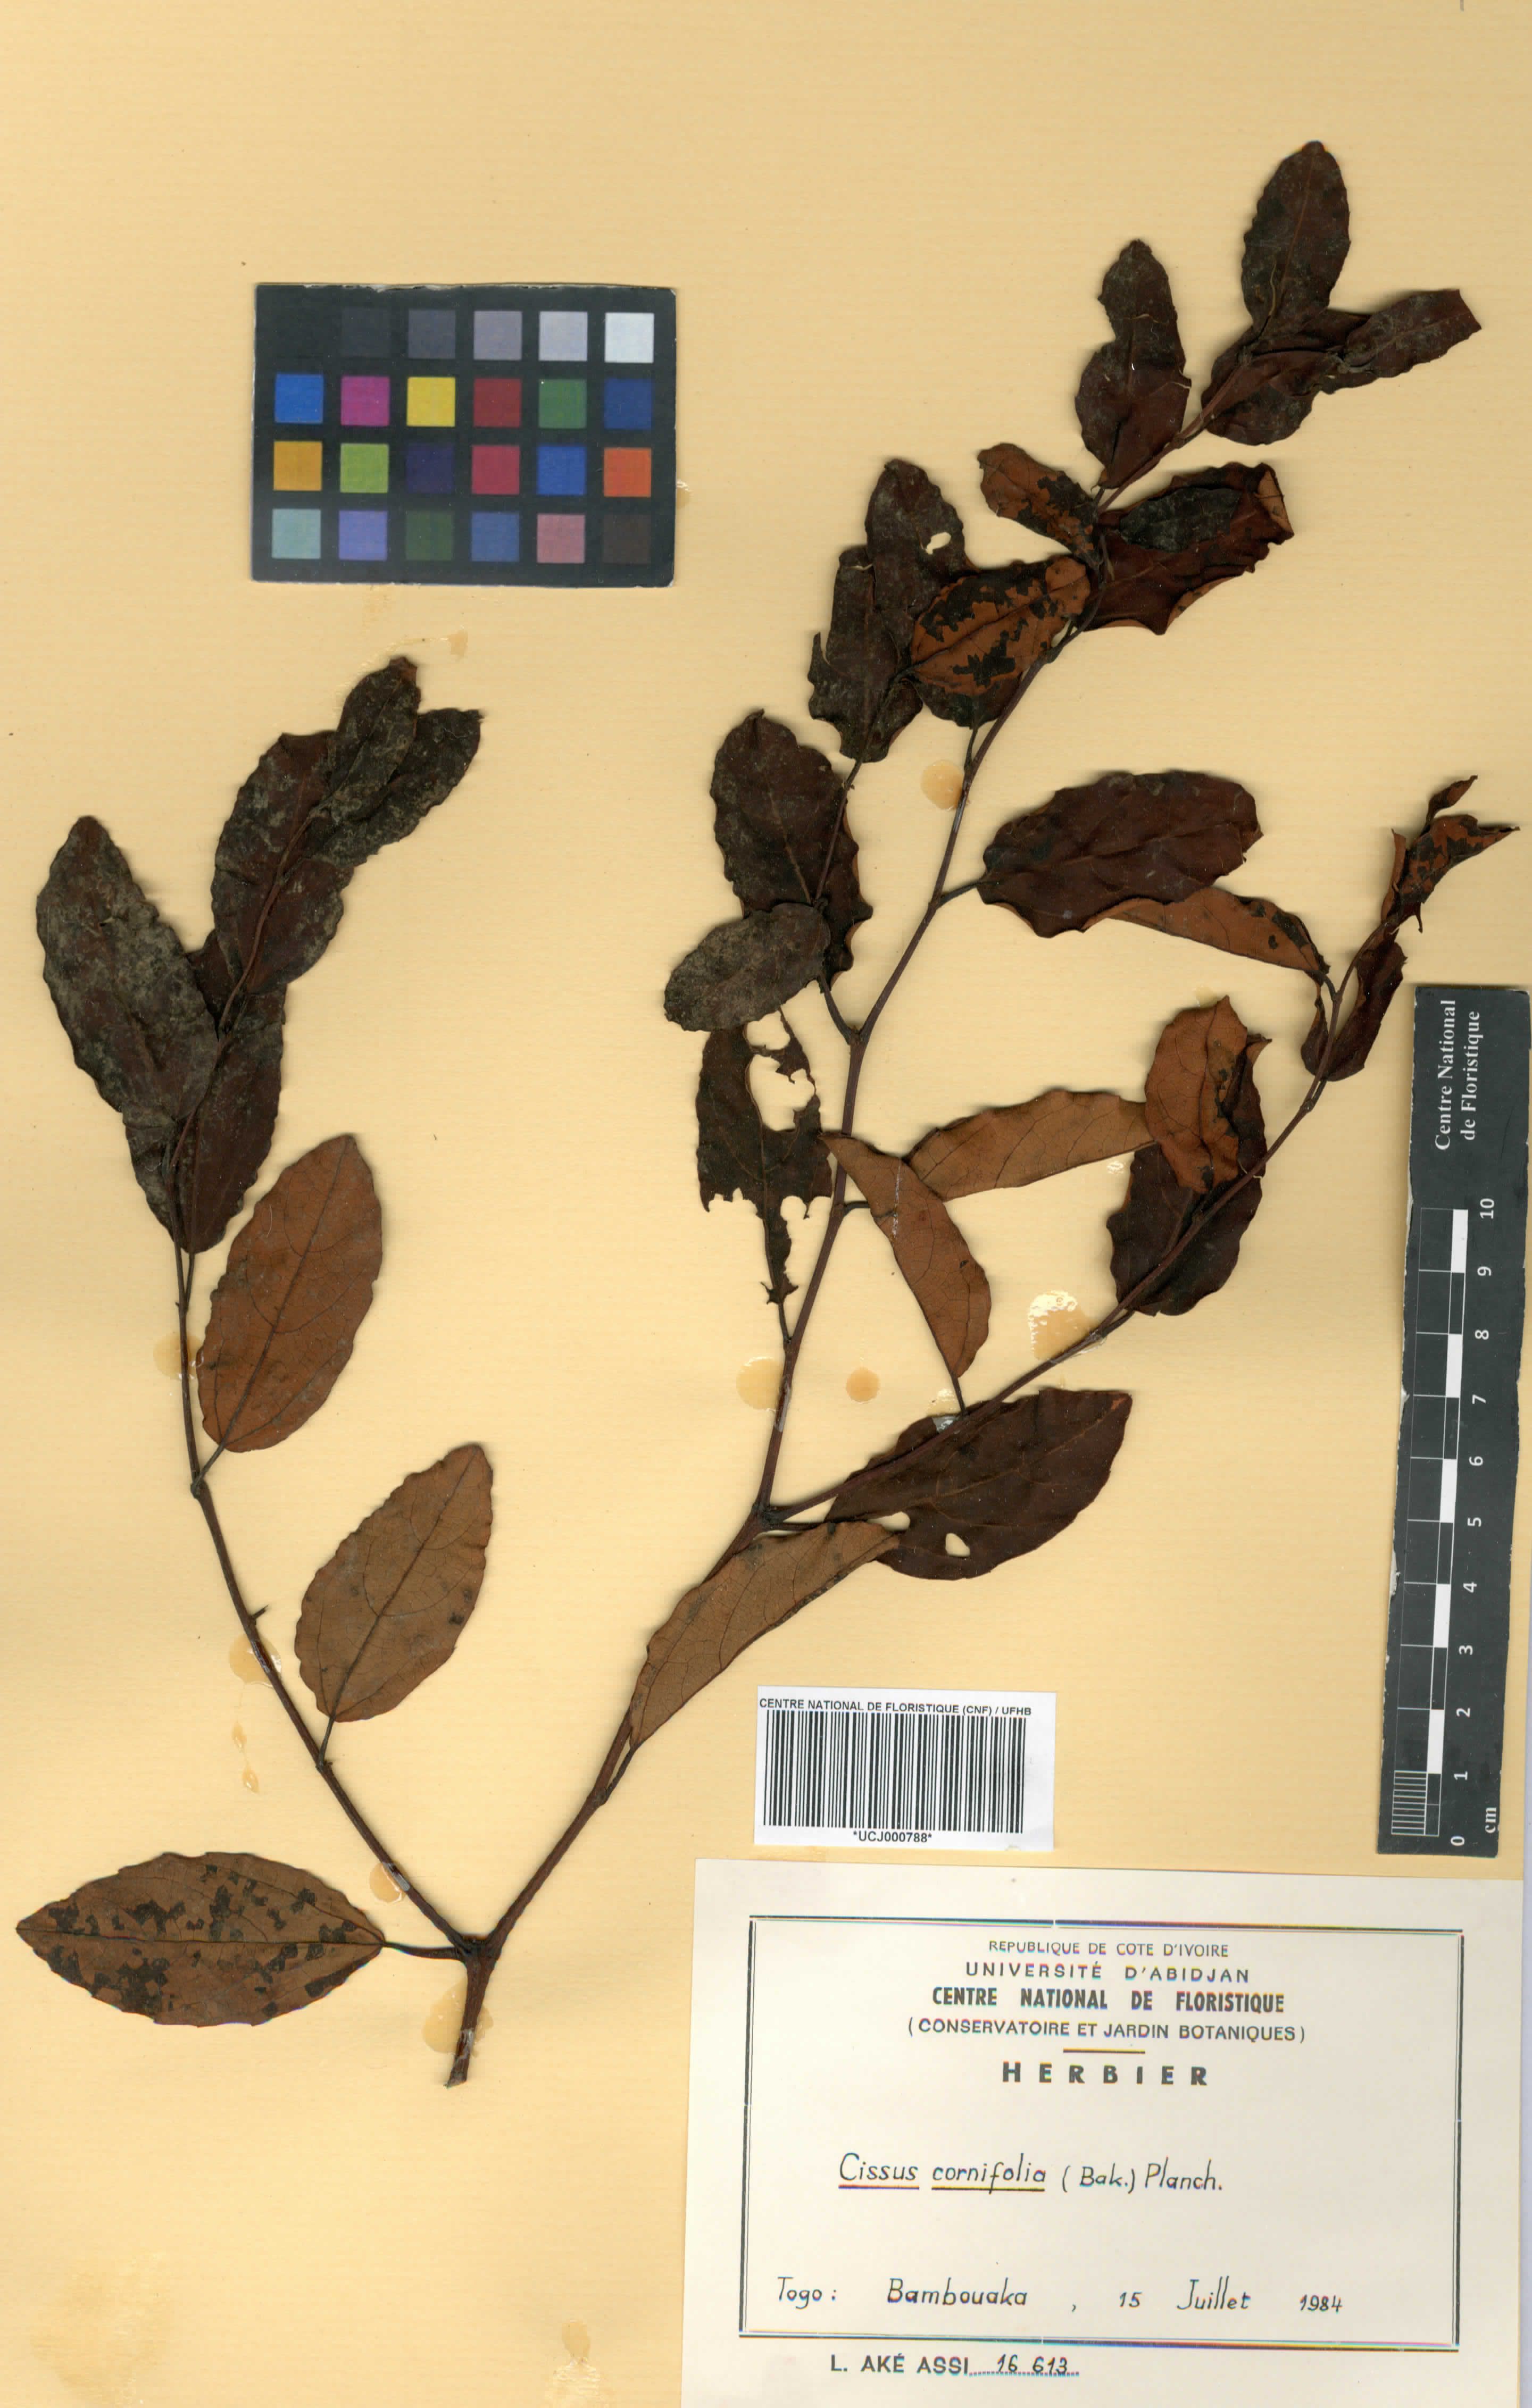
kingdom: Plantae
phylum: Tracheophyta
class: Magnoliopsida
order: Vitales
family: Vitaceae
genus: Cissus
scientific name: Cissus cornifolia
